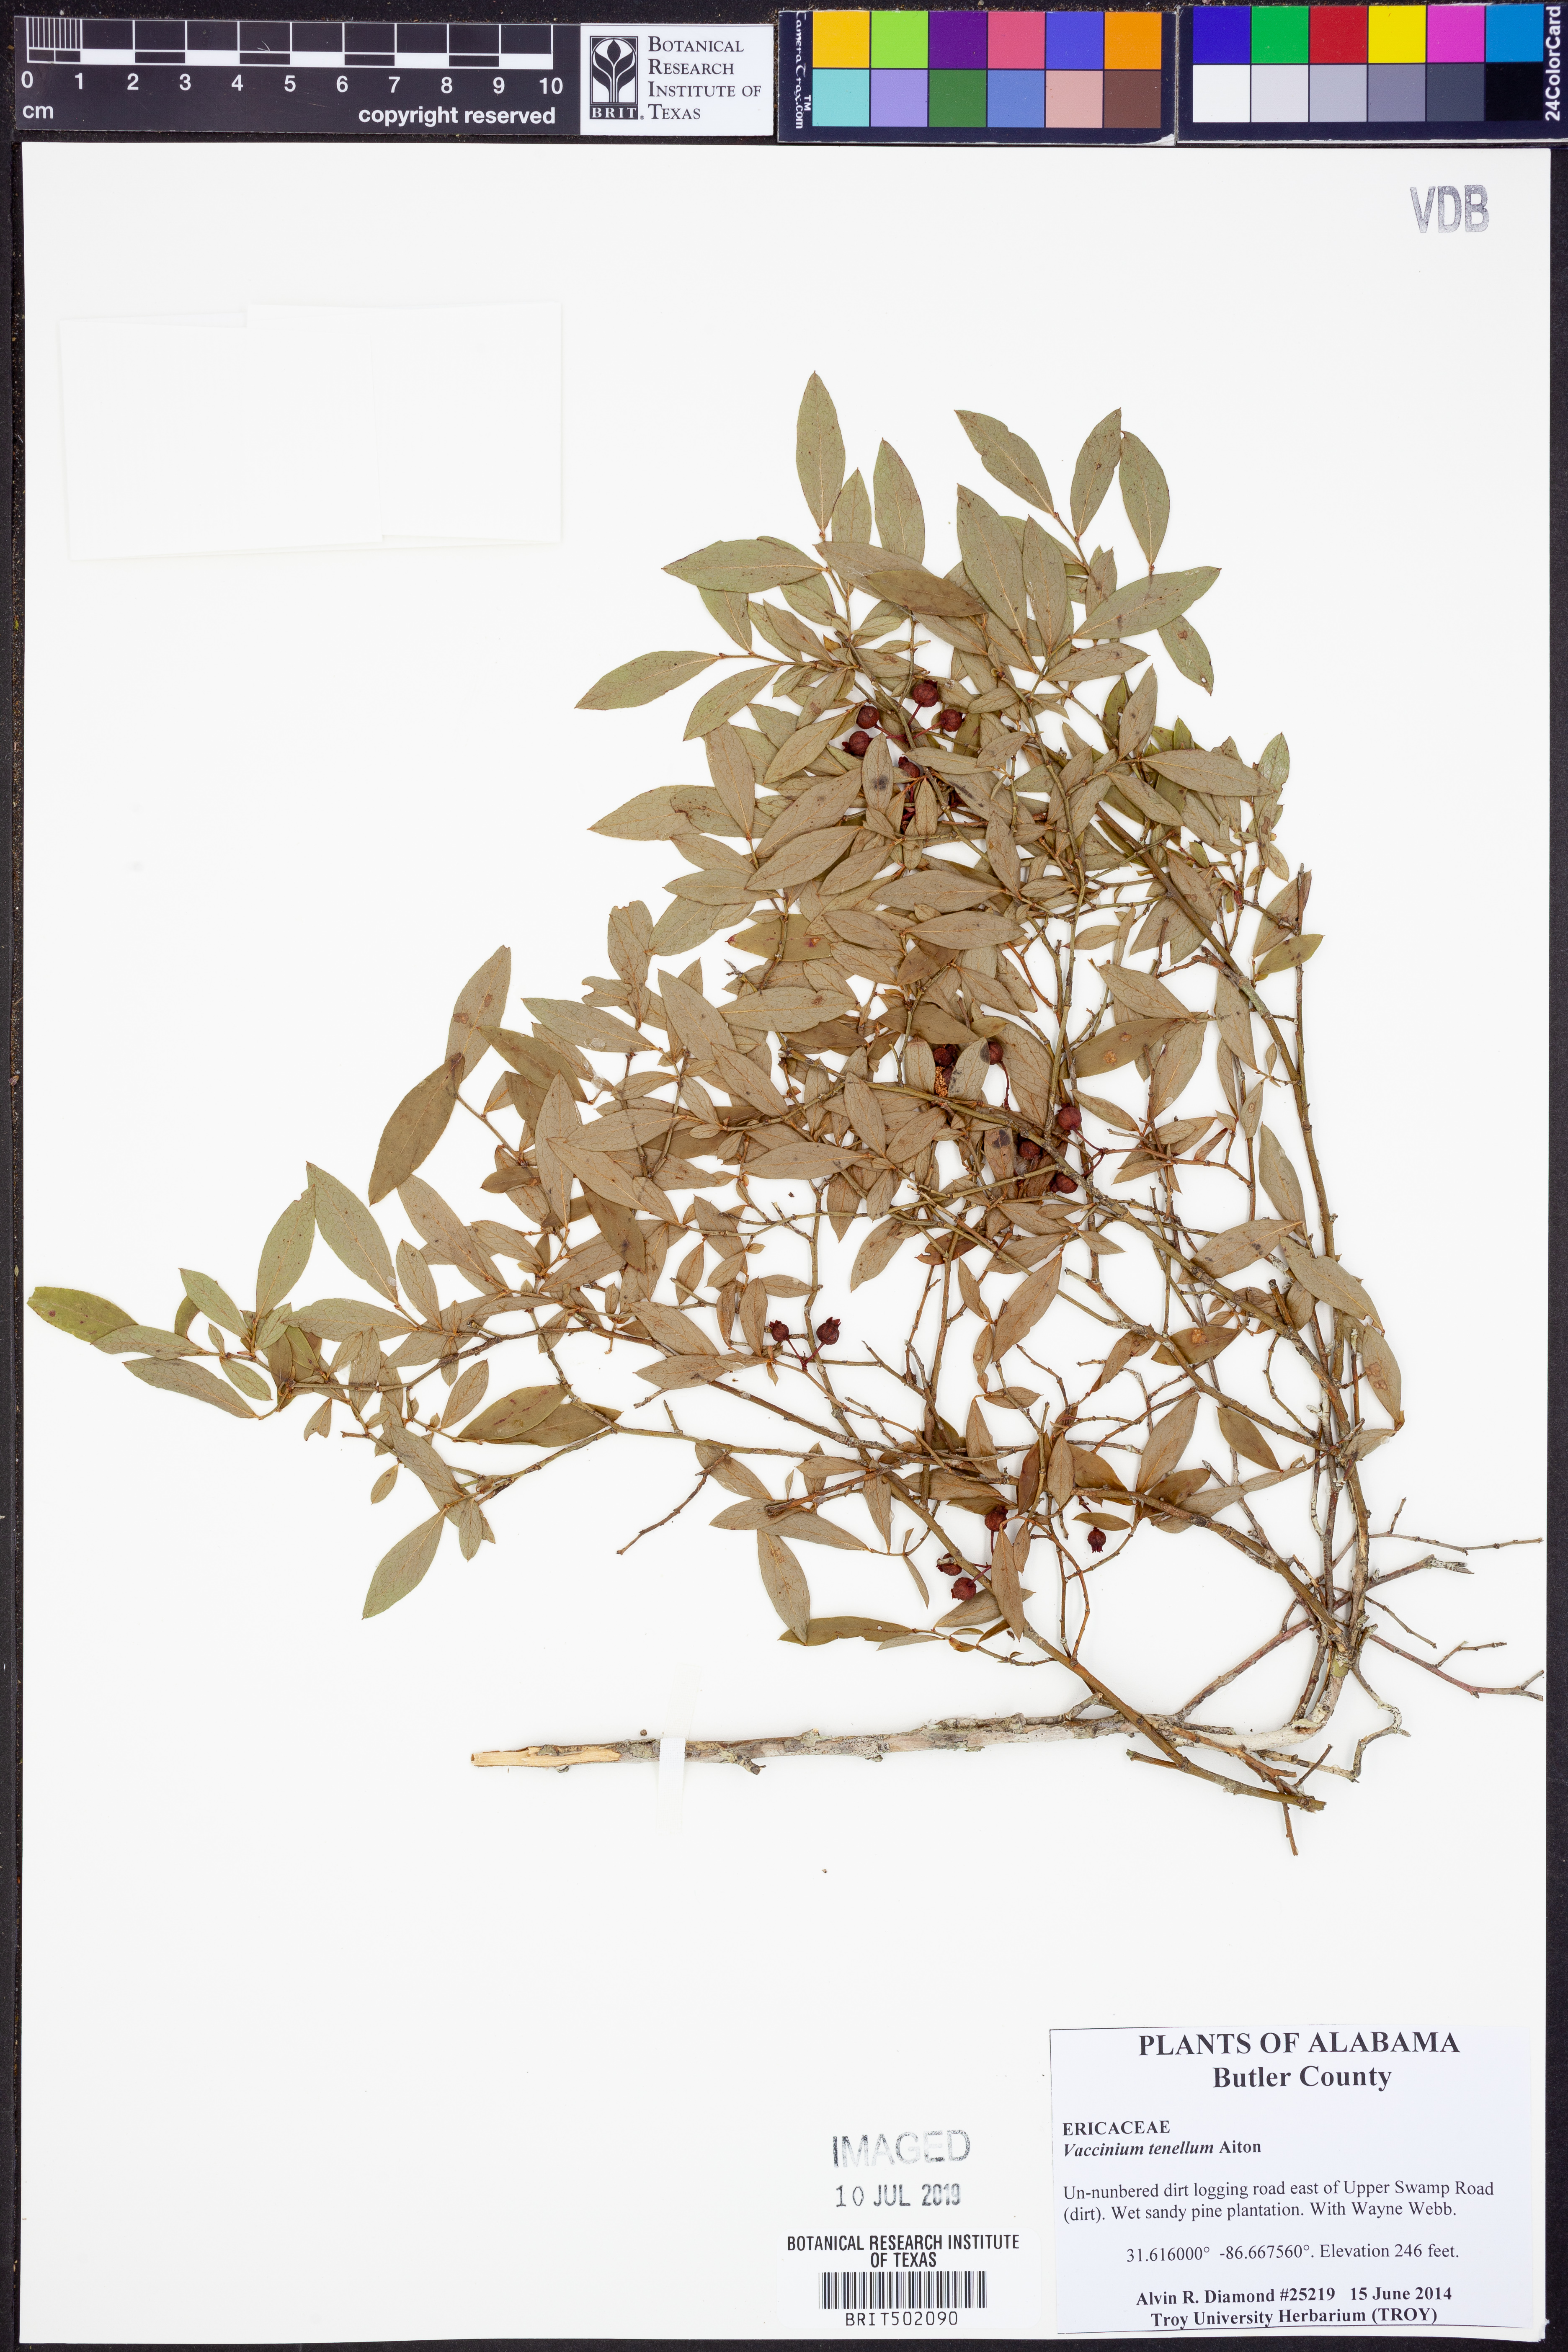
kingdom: Plantae
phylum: Tracheophyta
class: Magnoliopsida
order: Ericales
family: Ericaceae
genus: Vaccinium
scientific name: Vaccinium tenellum
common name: Southern blueberry
